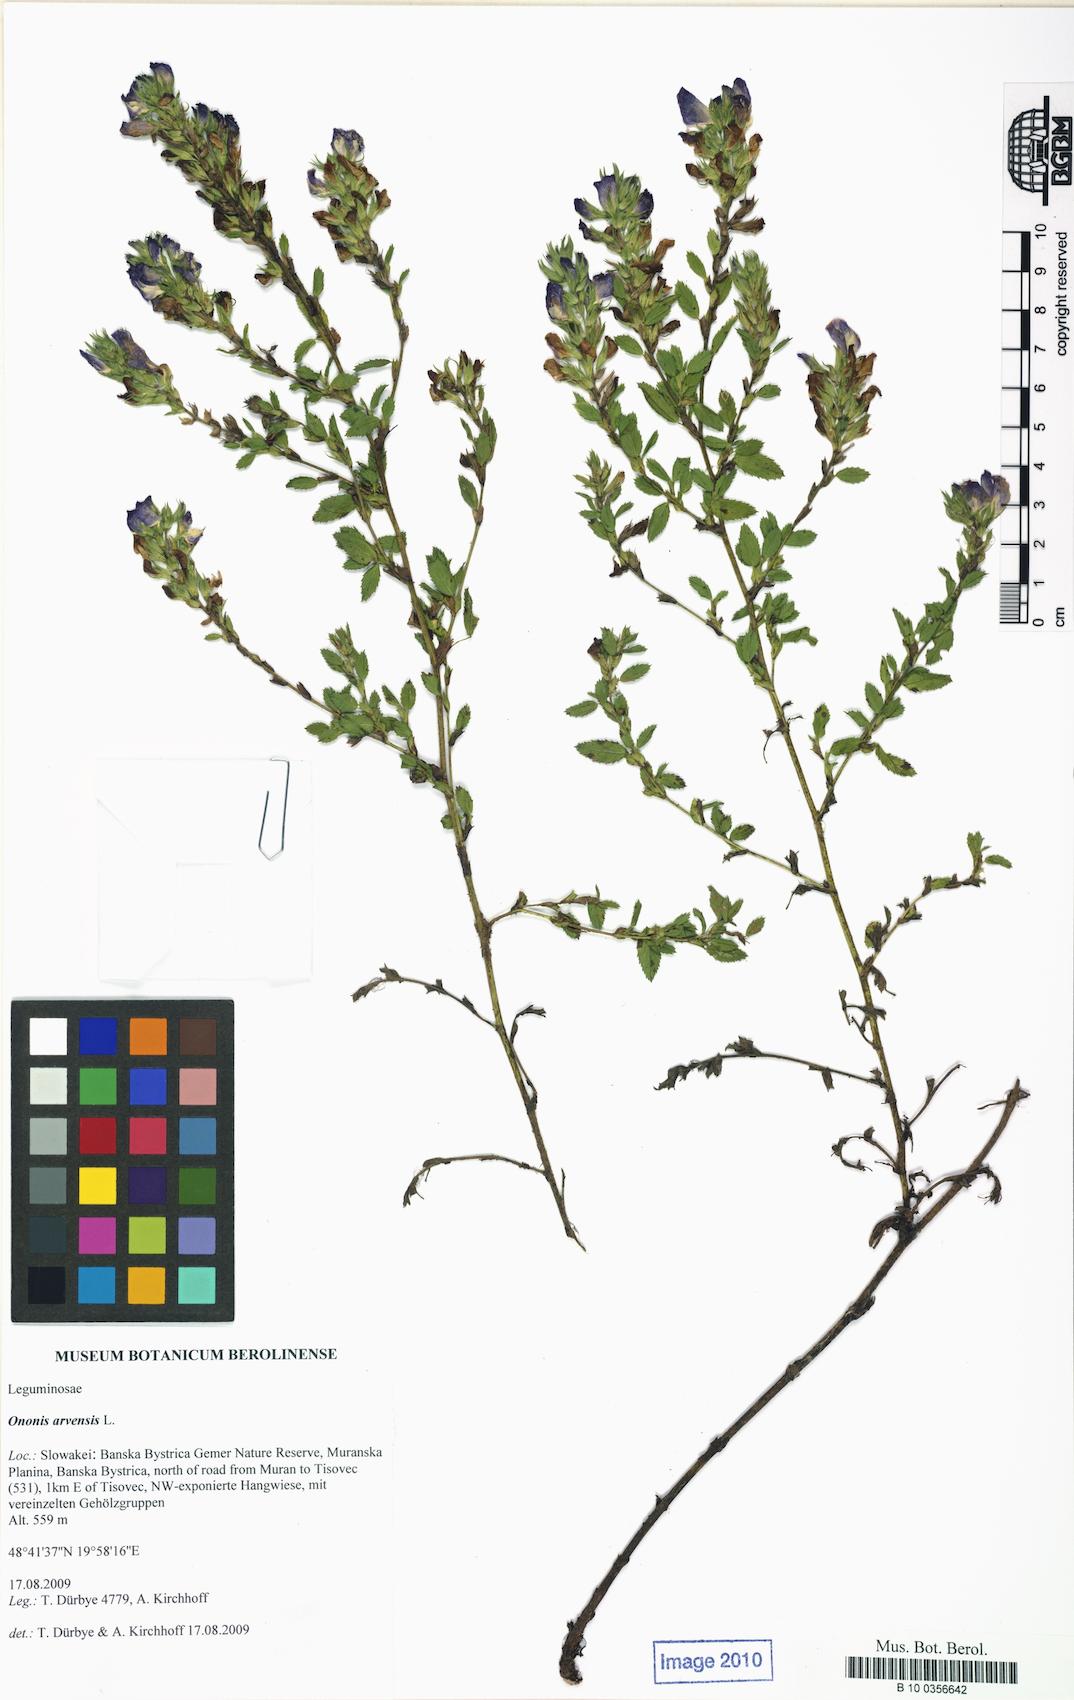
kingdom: Plantae
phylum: Tracheophyta
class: Magnoliopsida
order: Fabales
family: Fabaceae
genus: Ononis
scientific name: Ononis arvensis
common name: Field restharrow
